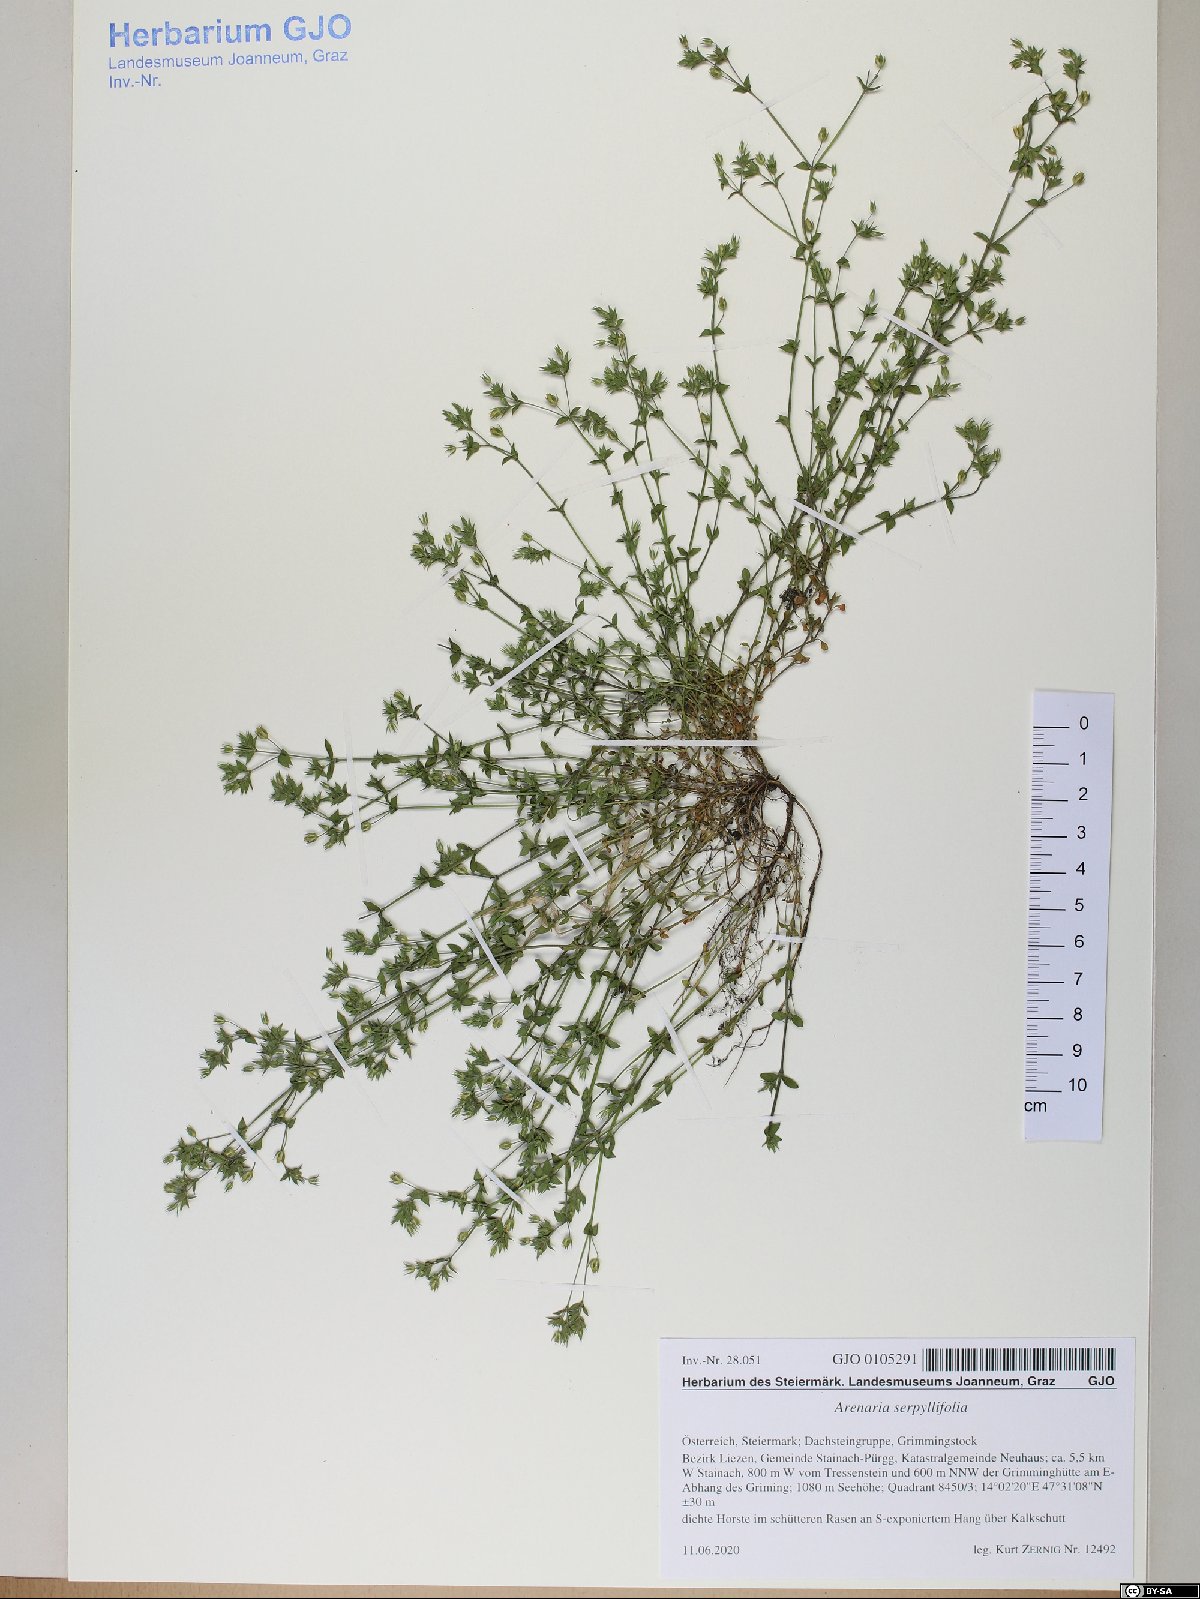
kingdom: Plantae
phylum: Tracheophyta
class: Magnoliopsida
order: Caryophyllales
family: Caryophyllaceae
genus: Arenaria
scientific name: Arenaria serpyllifolia
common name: Thyme-leaved sandwort
